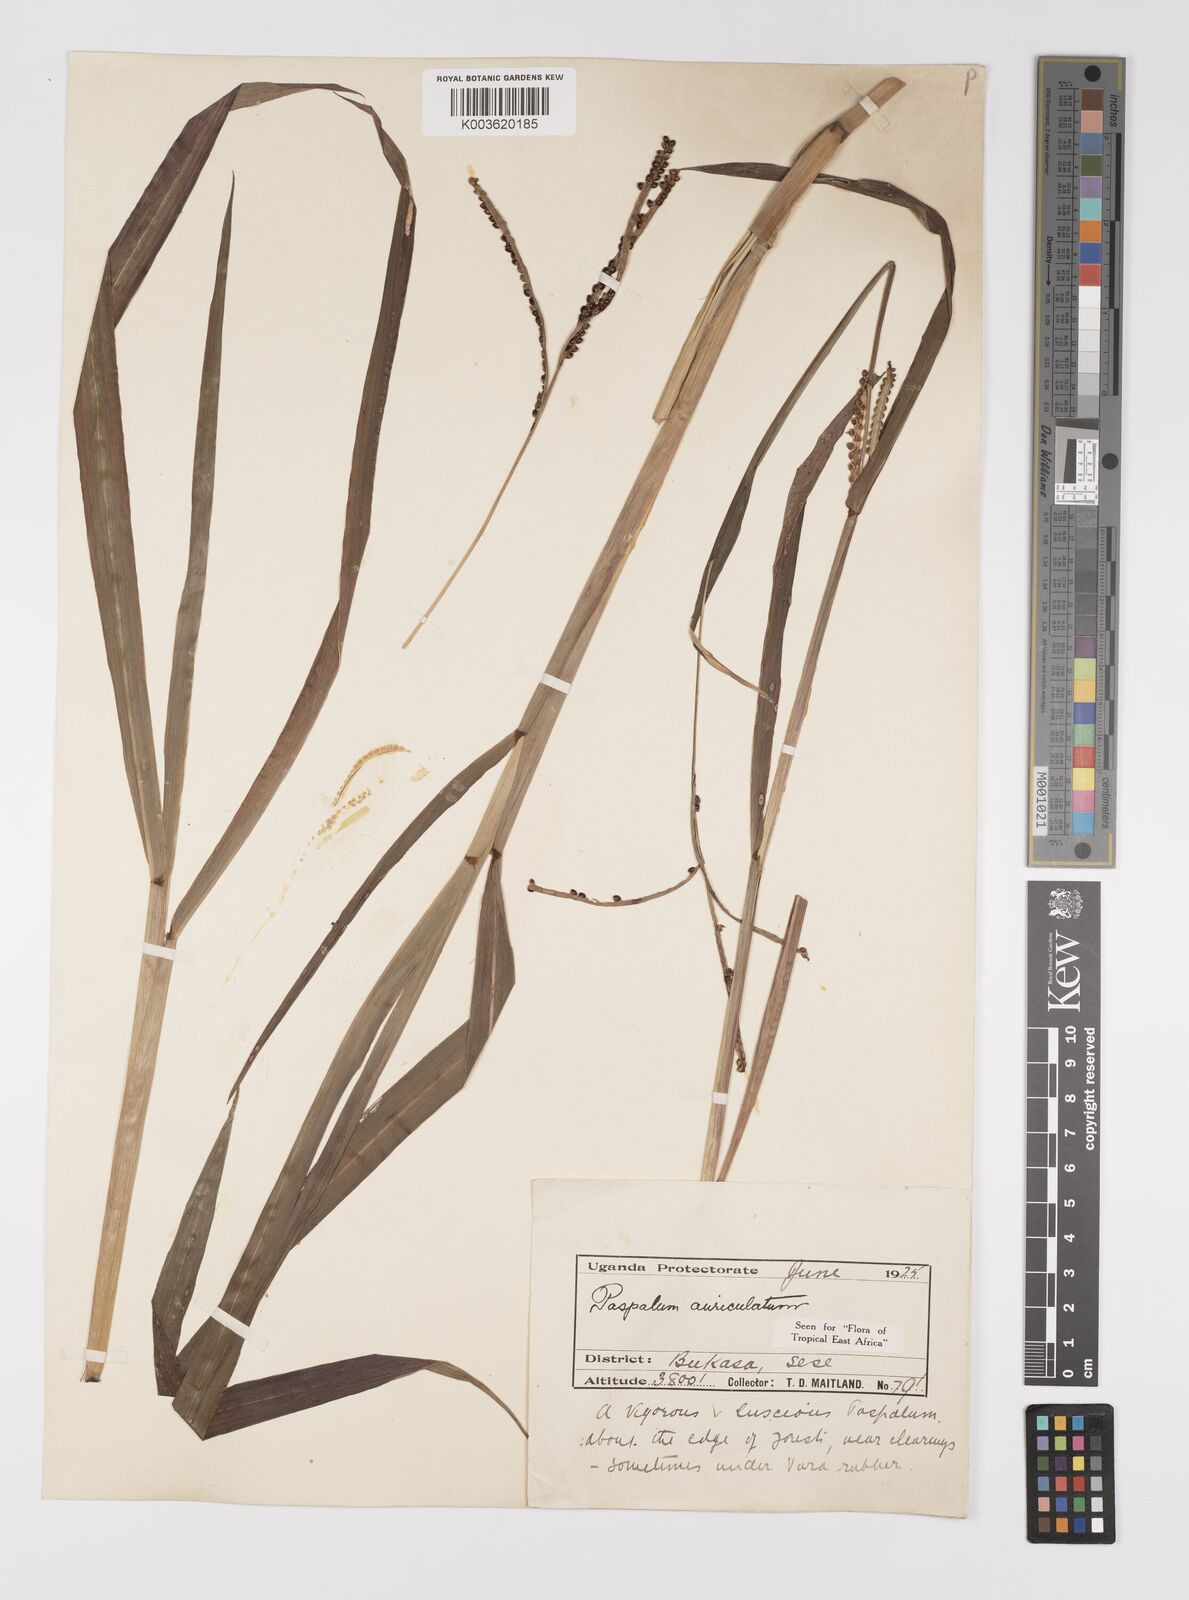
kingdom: Plantae
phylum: Tracheophyta
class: Liliopsida
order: Poales
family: Poaceae
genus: Paspalum
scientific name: Paspalum lamprocaryon
